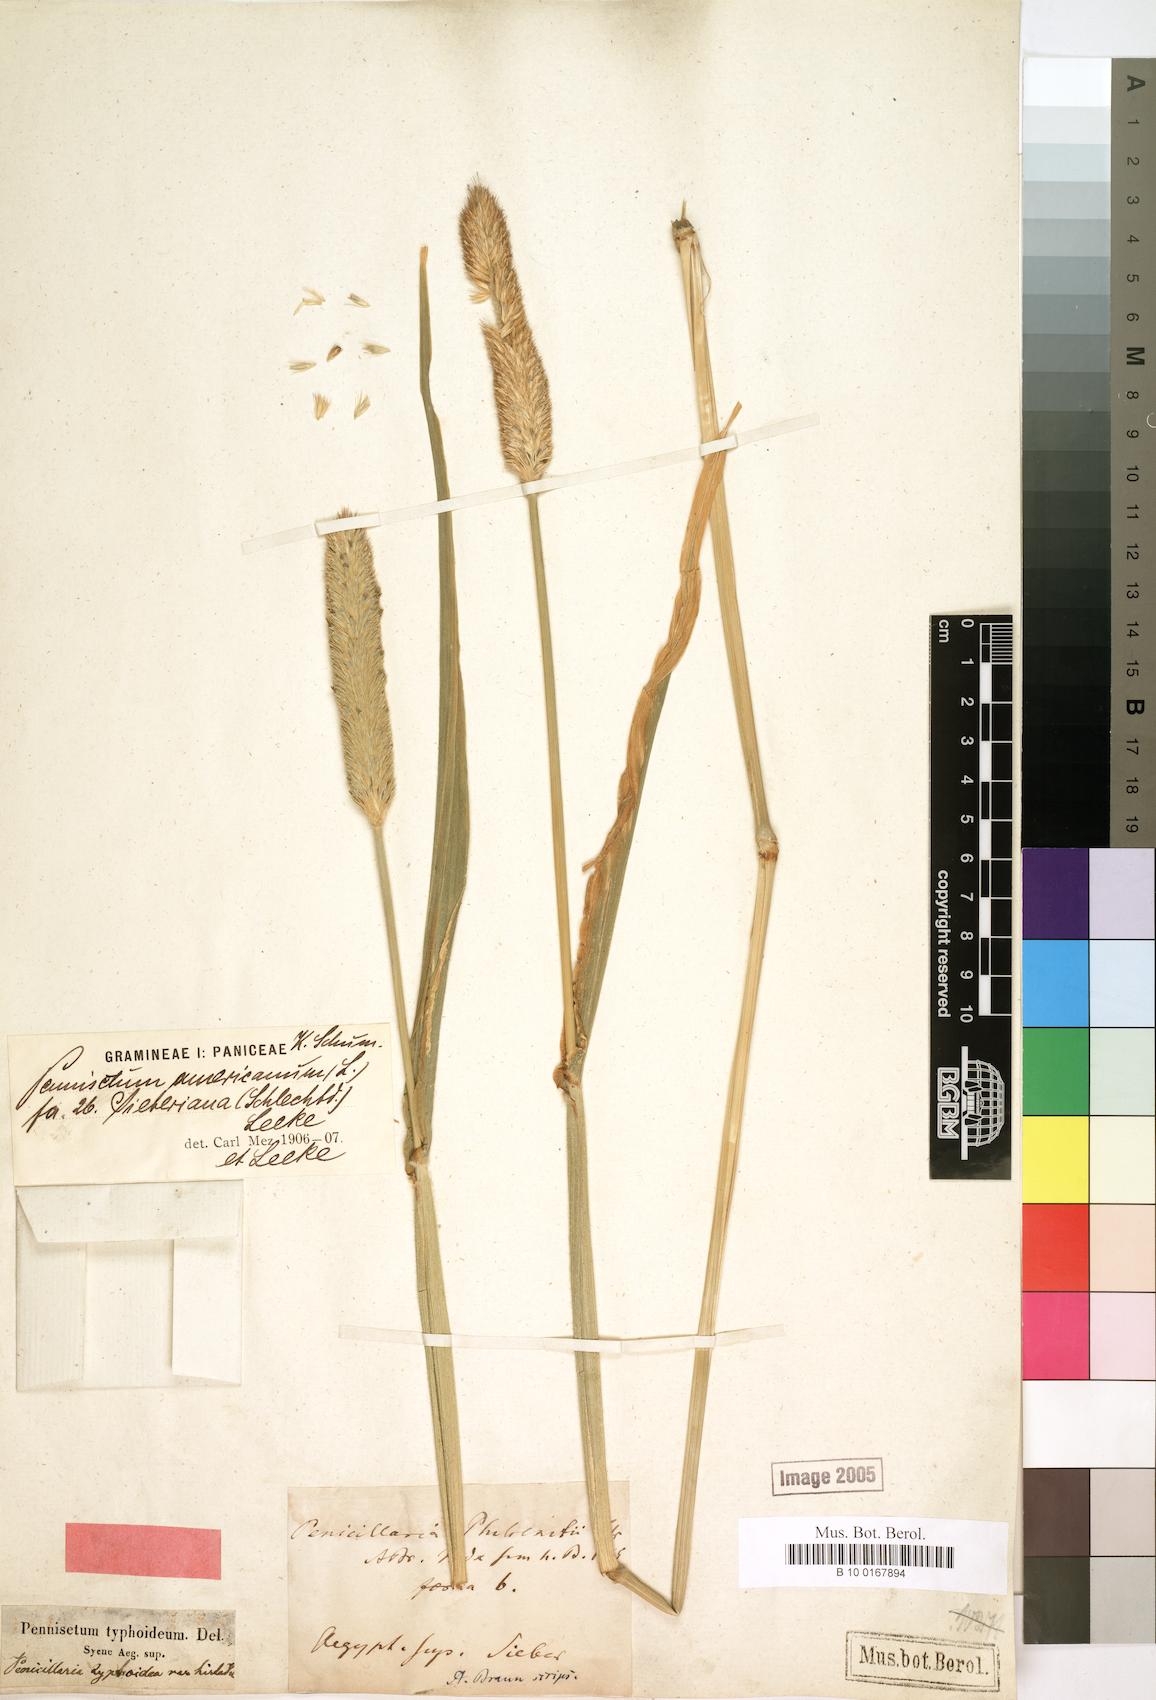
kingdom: Plantae
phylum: Tracheophyta
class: Liliopsida
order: Poales
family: Poaceae
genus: Cenchrus
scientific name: Cenchrus americanus
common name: Pearl millet
